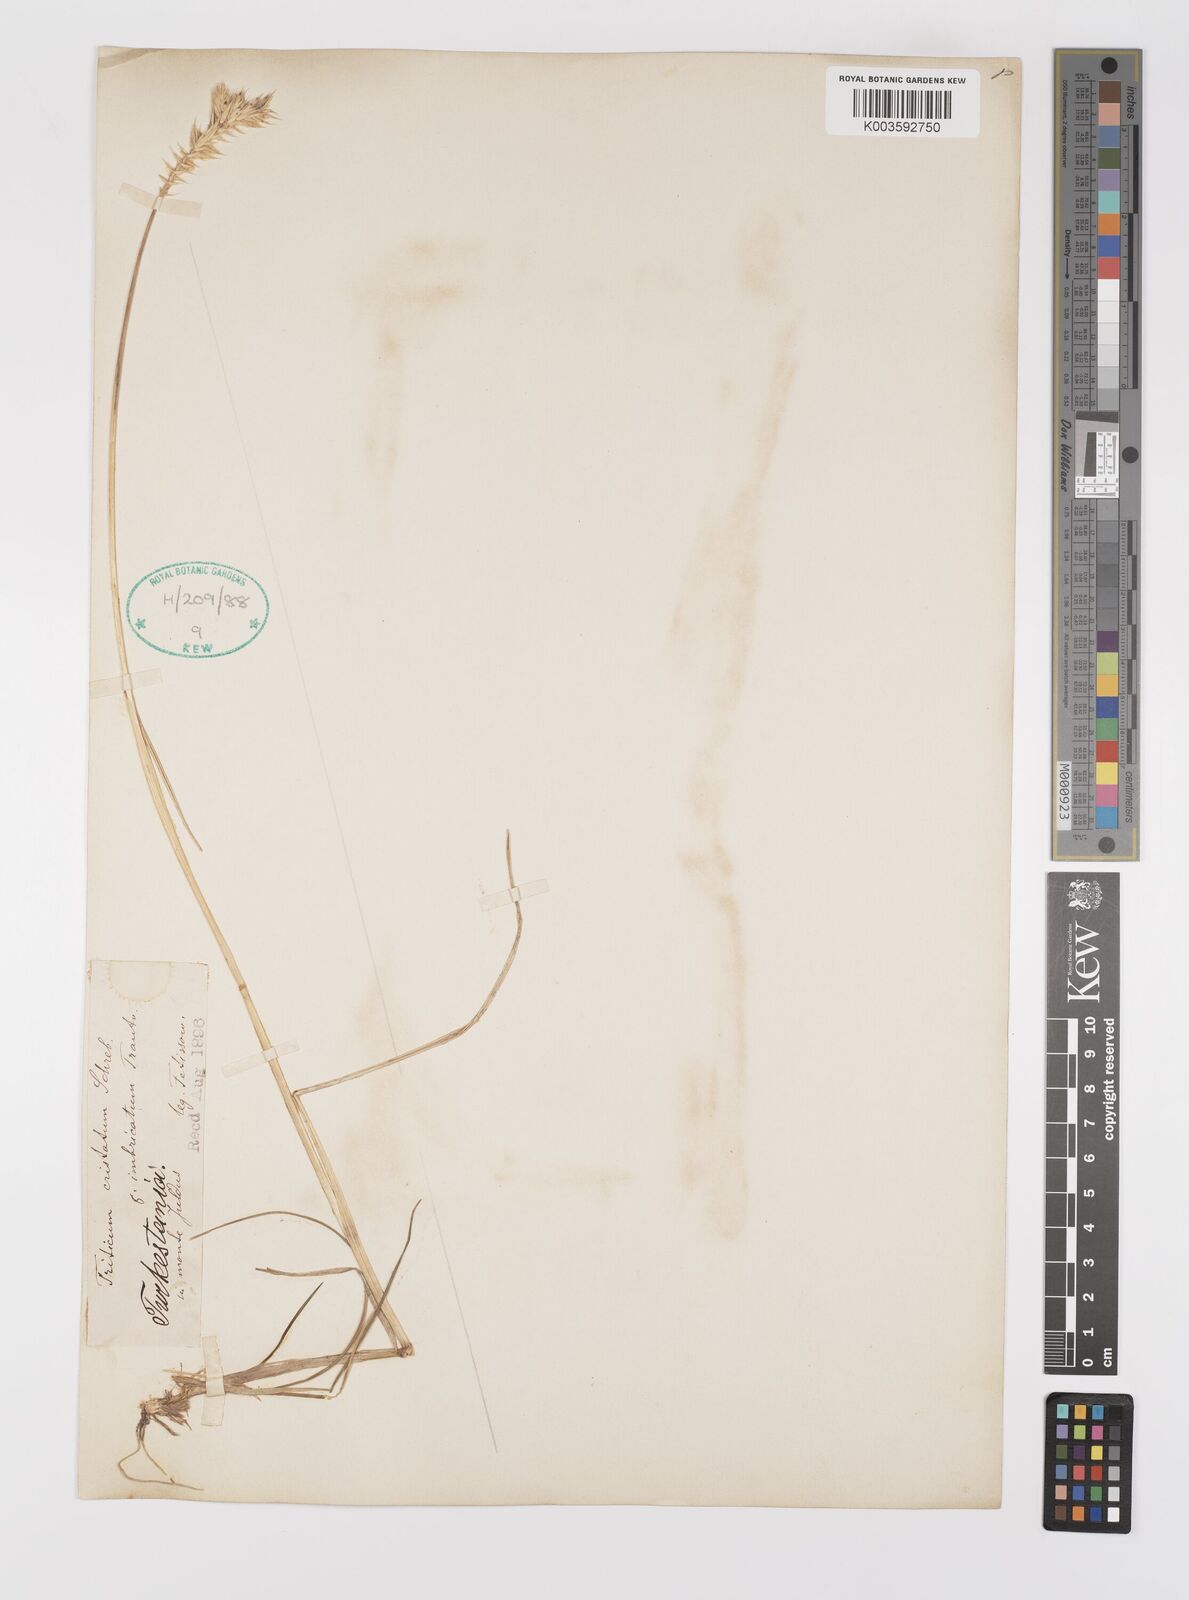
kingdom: Plantae
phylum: Tracheophyta
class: Liliopsida
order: Poales
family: Poaceae
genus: Agropyron
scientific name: Agropyron cristatum
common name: Crested wheatgrass
